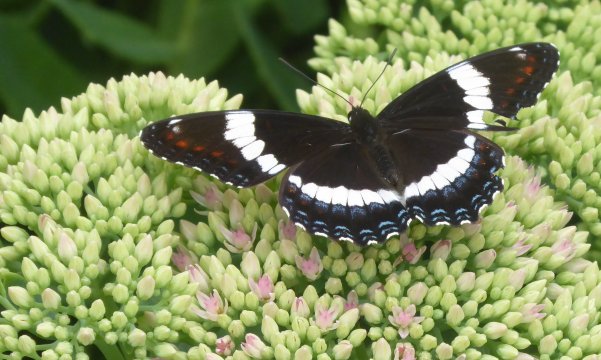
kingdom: Animalia
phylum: Arthropoda
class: Insecta
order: Lepidoptera
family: Nymphalidae
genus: Limenitis
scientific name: Limenitis arthemis
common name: Red-spotted Admiral
